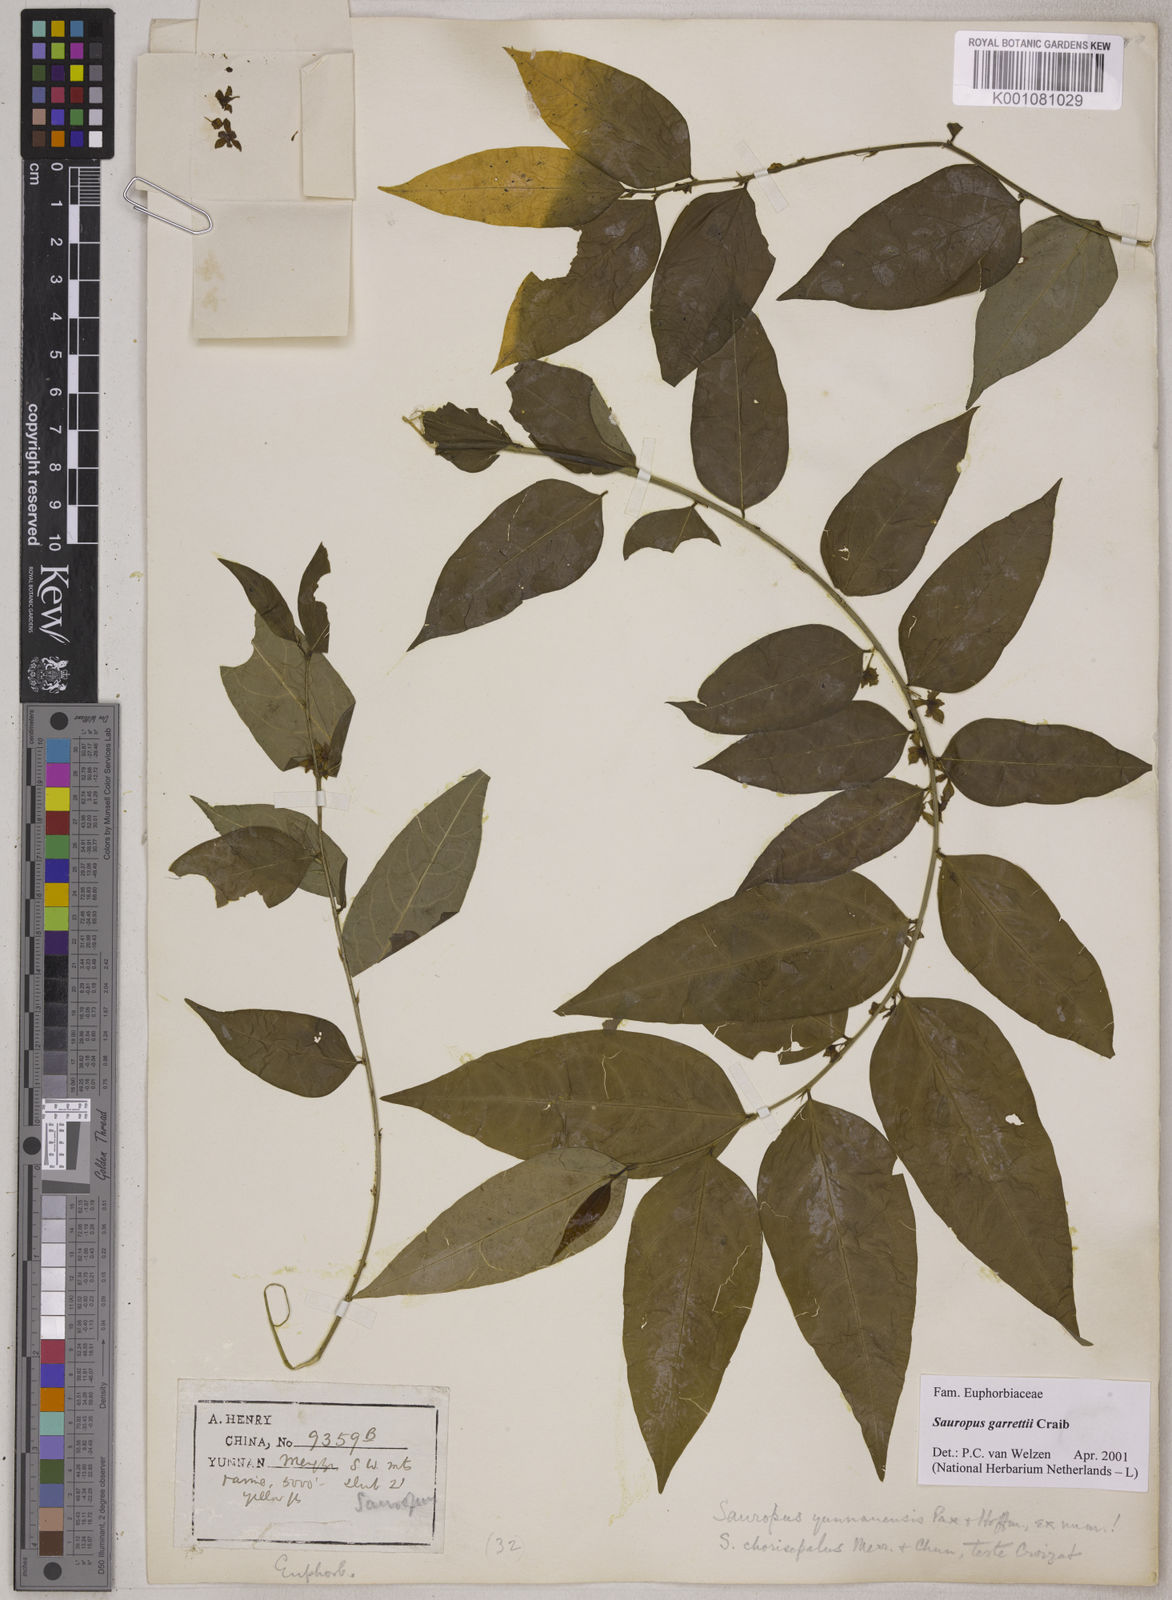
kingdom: Plantae
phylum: Tracheophyta
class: Magnoliopsida
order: Malpighiales
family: Phyllanthaceae
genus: Breynia
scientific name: Breynia garrettii
